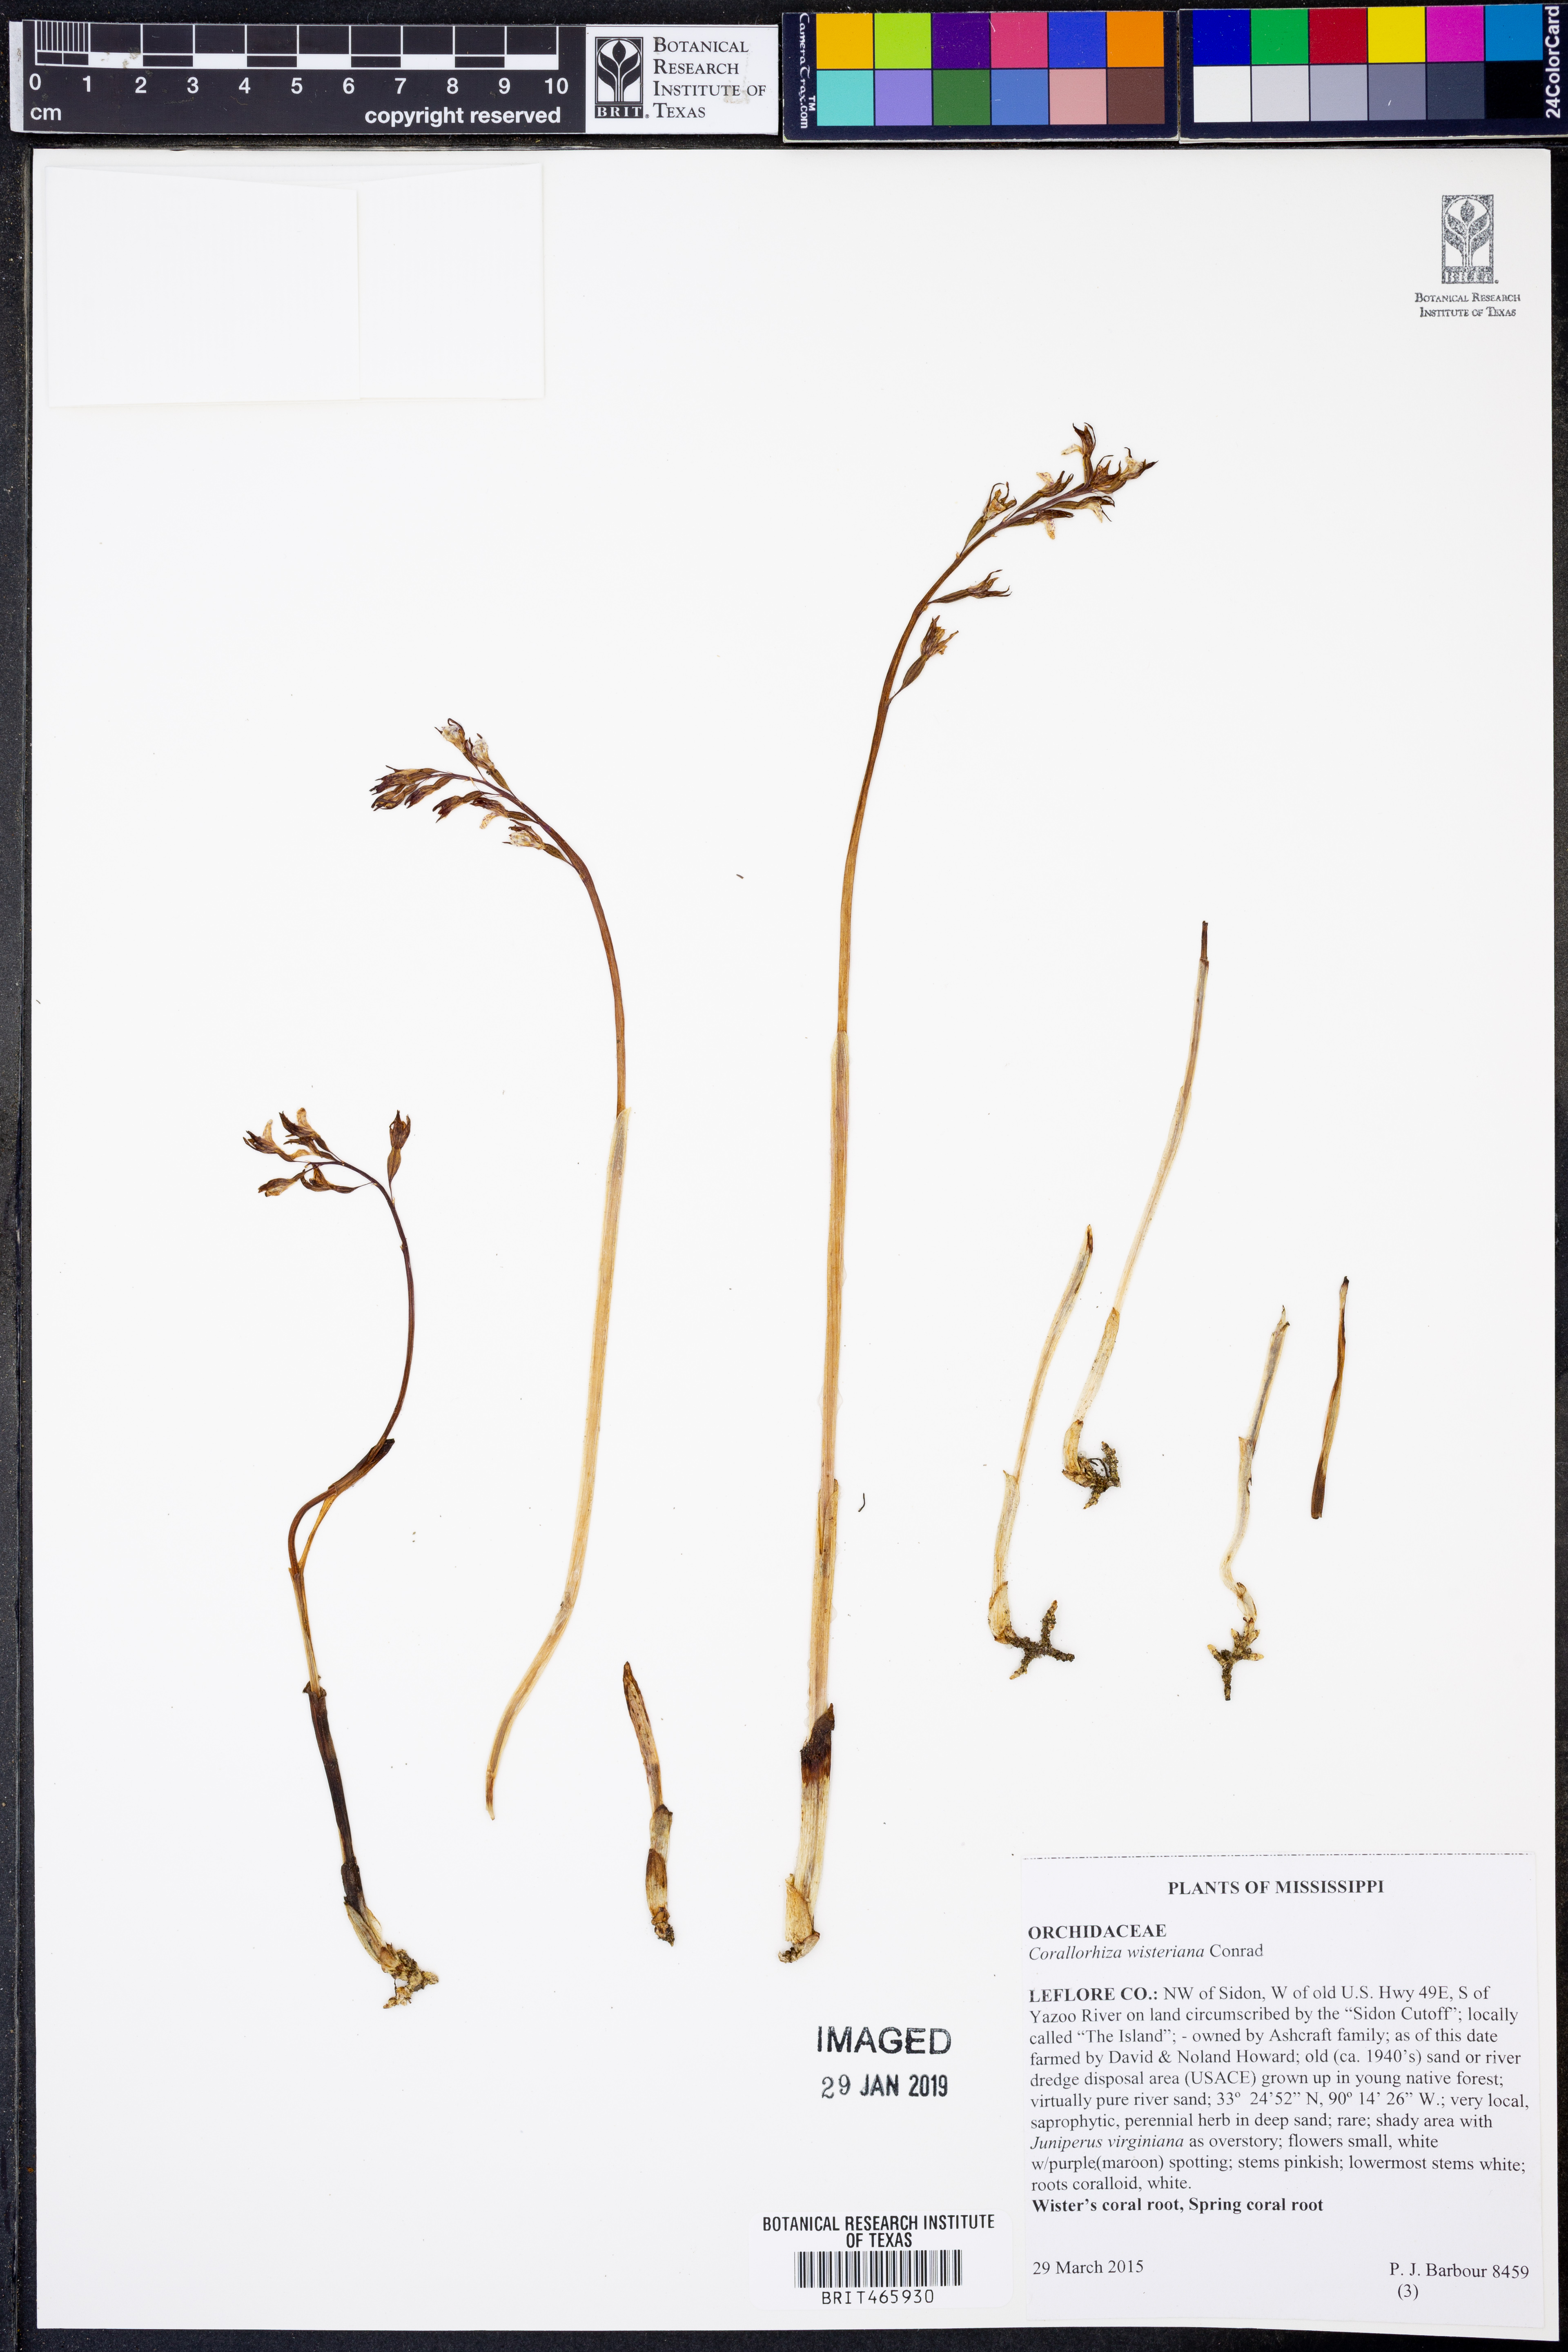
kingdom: Plantae
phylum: Tracheophyta
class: Liliopsida
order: Asparagales
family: Orchidaceae
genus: Corallorhiza
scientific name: Corallorhiza wisteriana
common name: Spring coralroot
